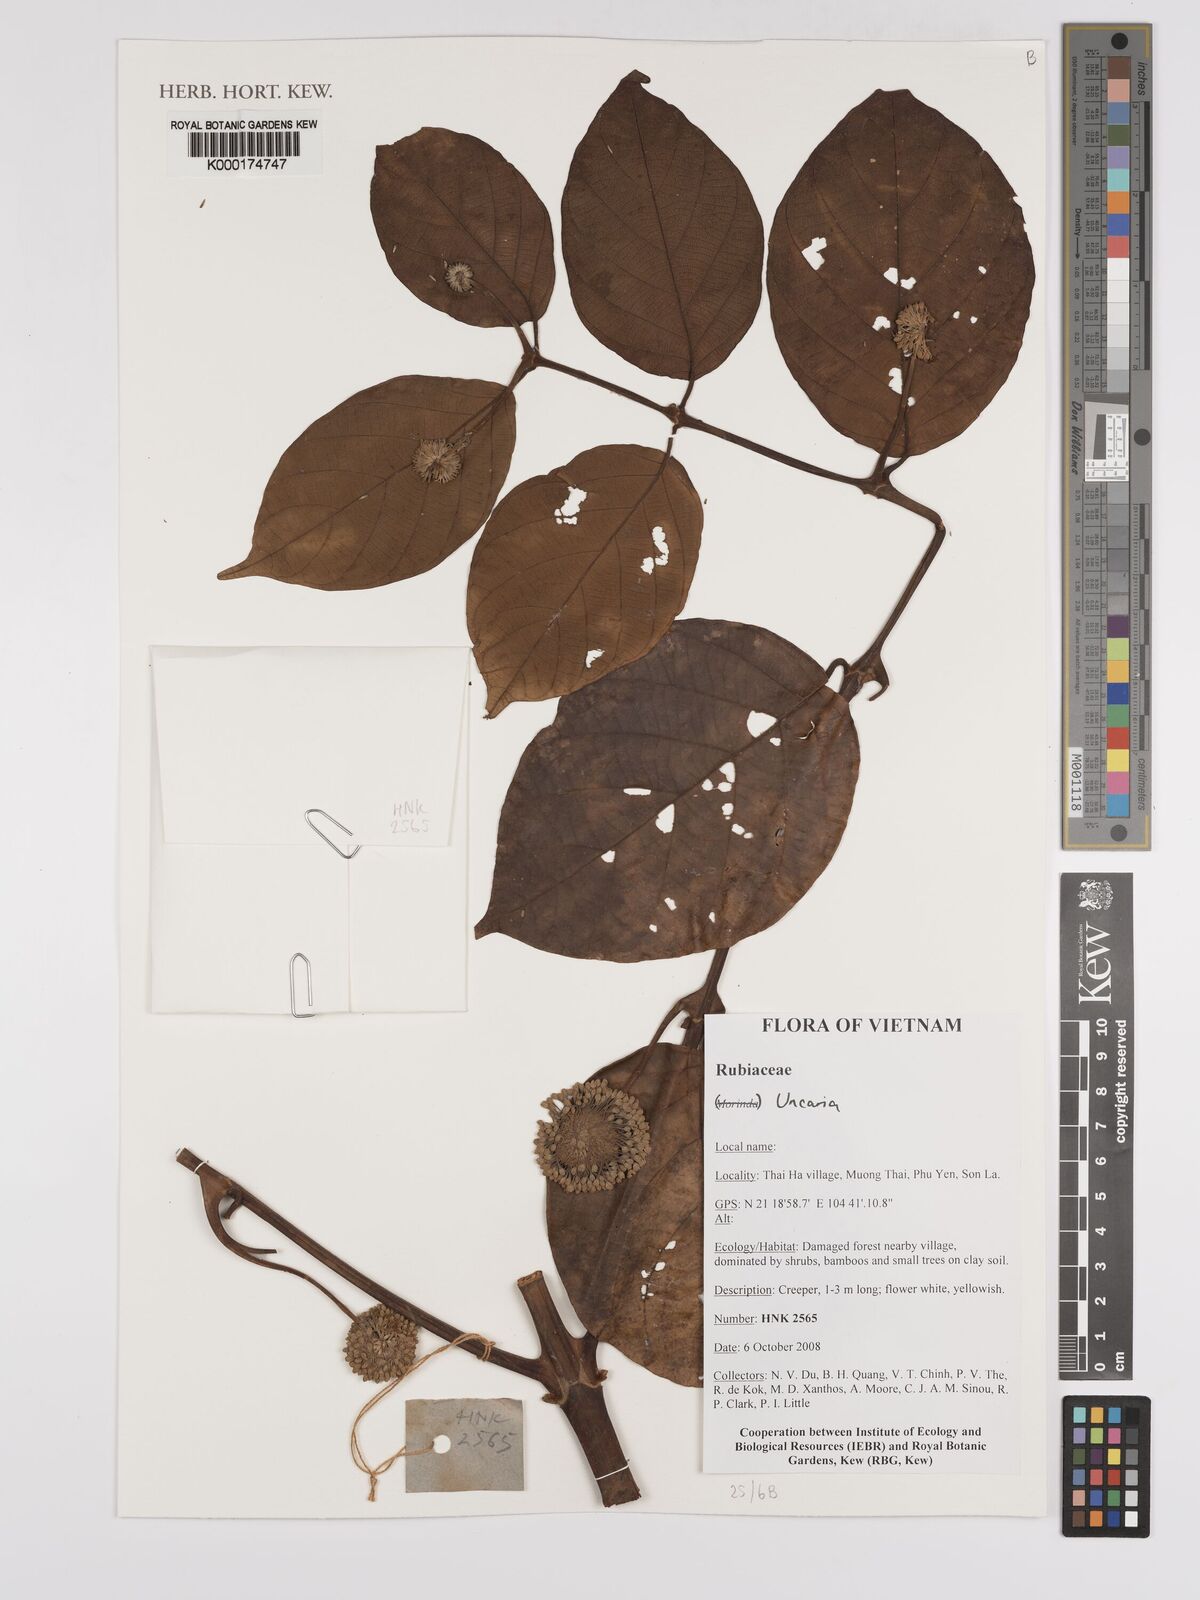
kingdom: Plantae
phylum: Tracheophyta
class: Magnoliopsida
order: Gentianales
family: Rubiaceae
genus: Uncaria
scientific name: Uncaria
